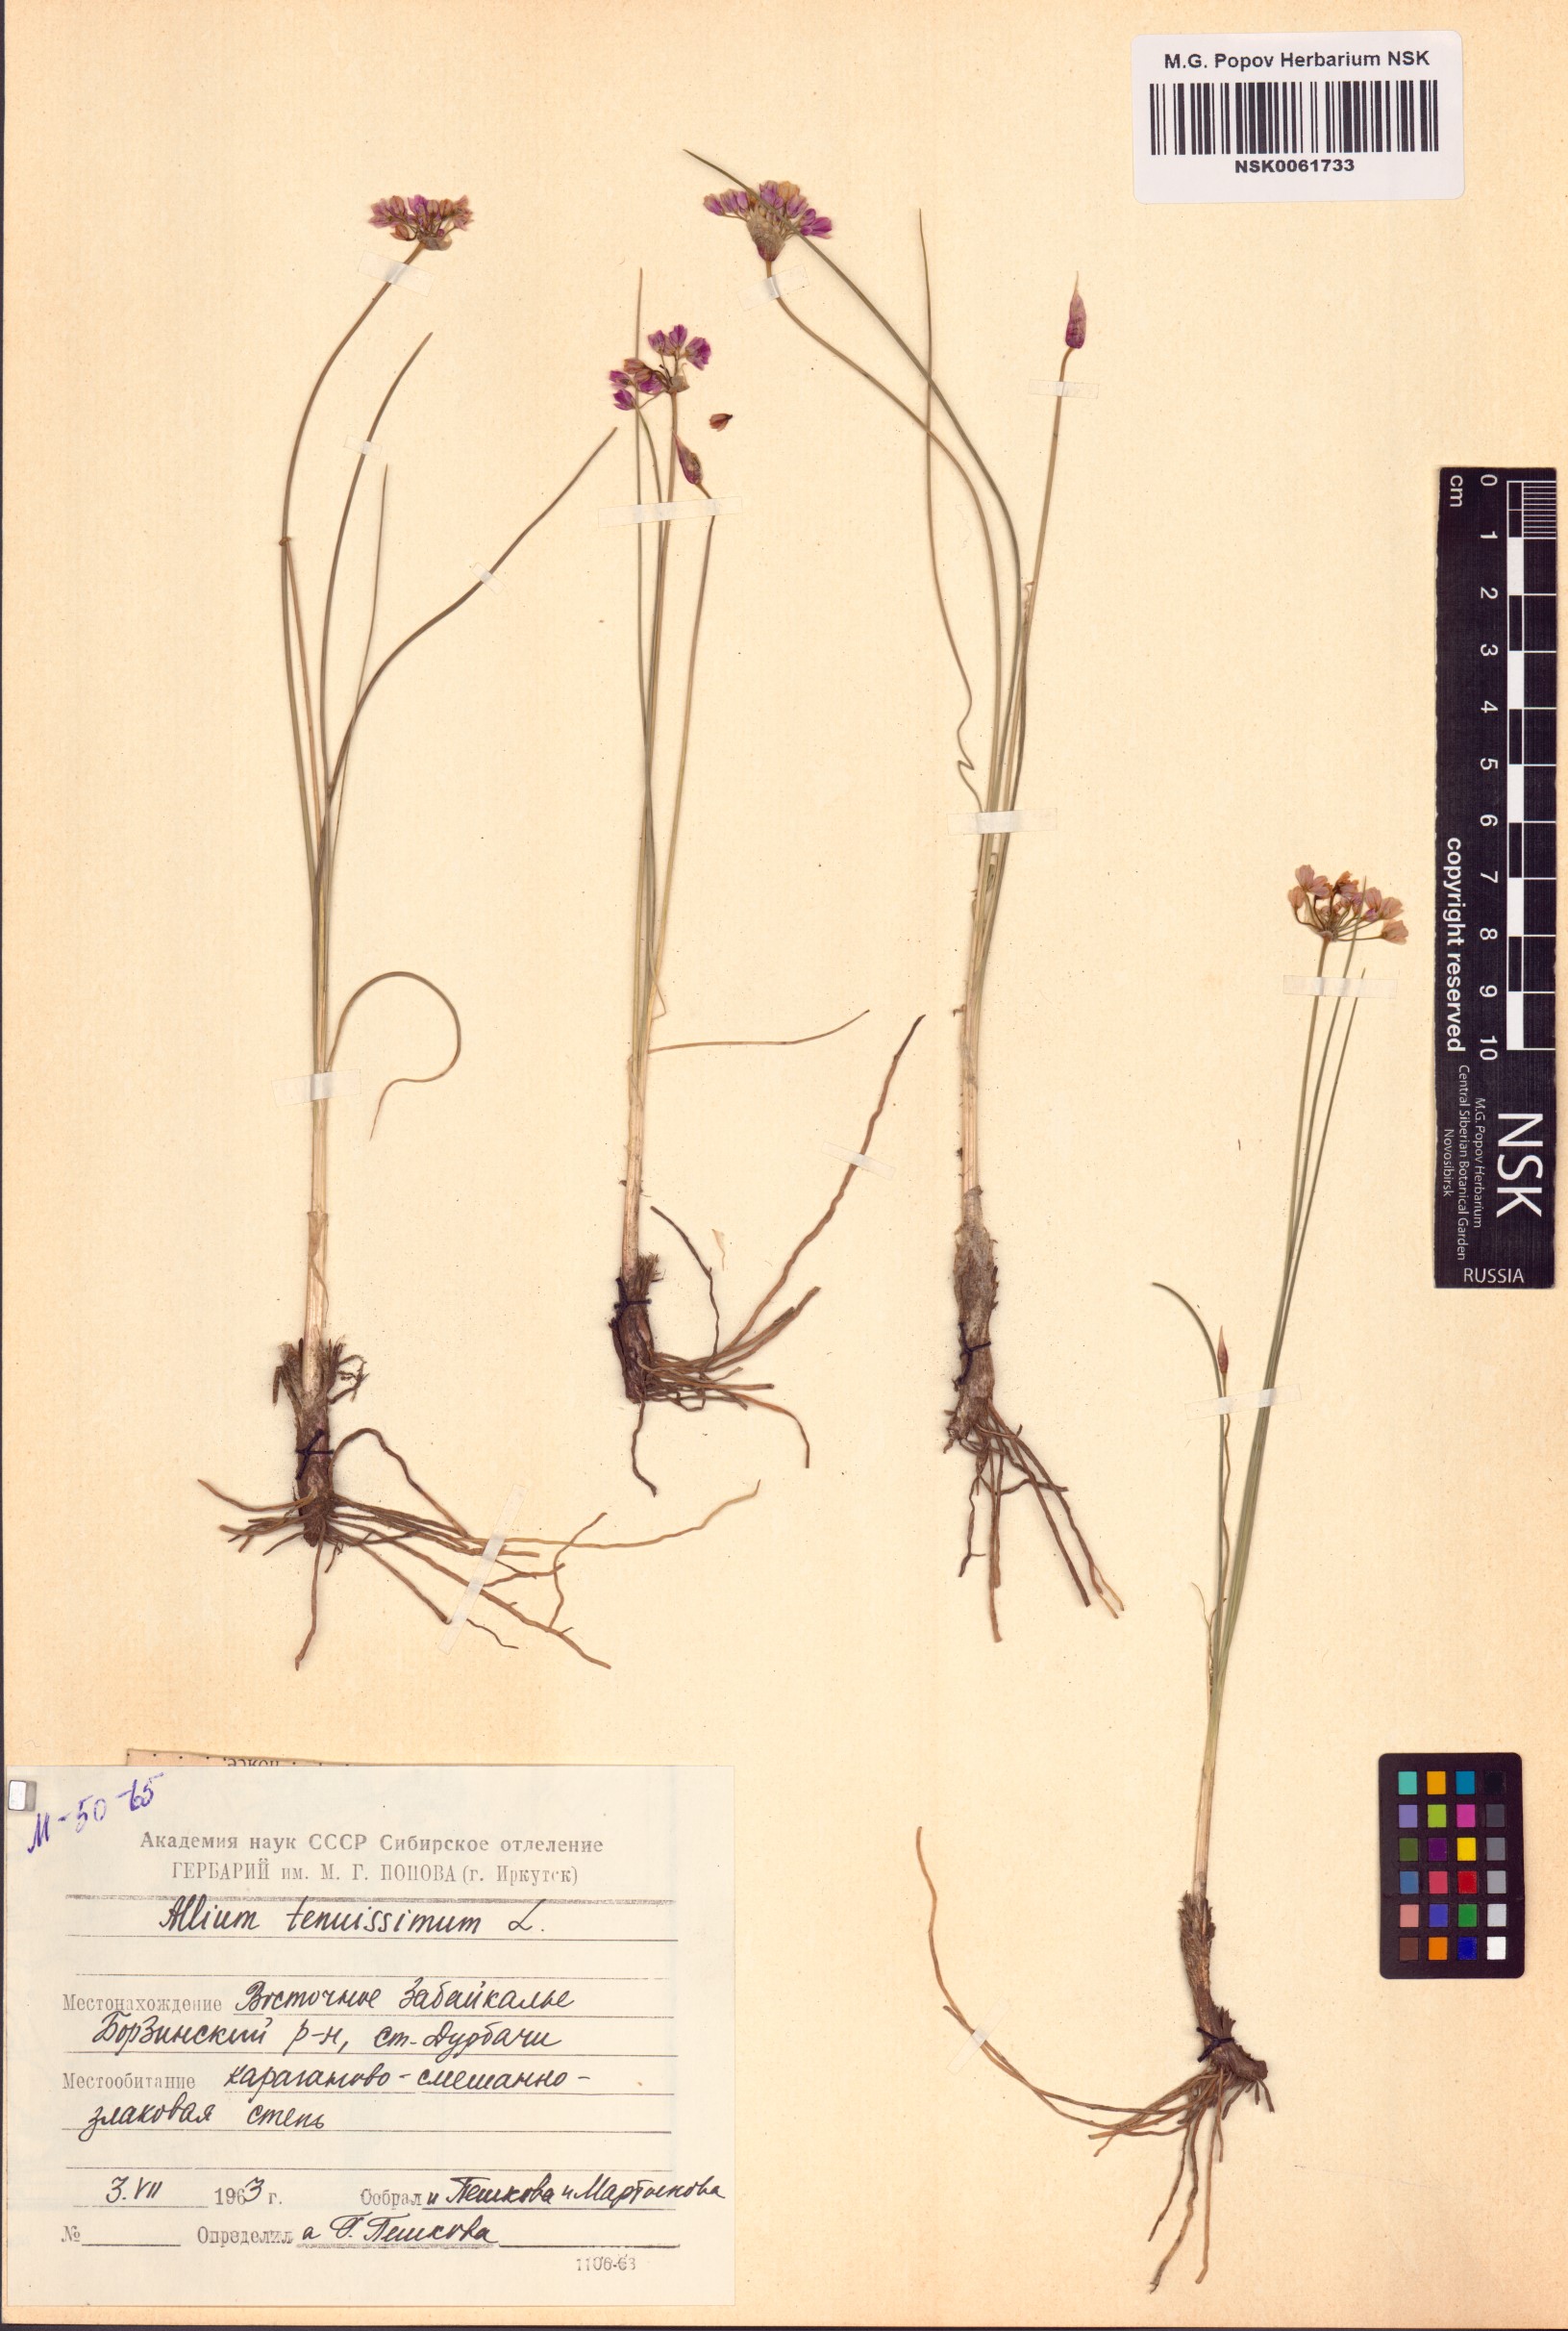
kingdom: Plantae
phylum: Tracheophyta
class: Liliopsida
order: Asparagales
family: Amaryllidaceae
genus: Allium
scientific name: Allium tenuissimum
